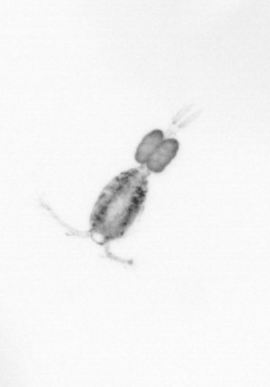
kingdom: Animalia
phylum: Arthropoda
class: Copepoda
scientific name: Copepoda
